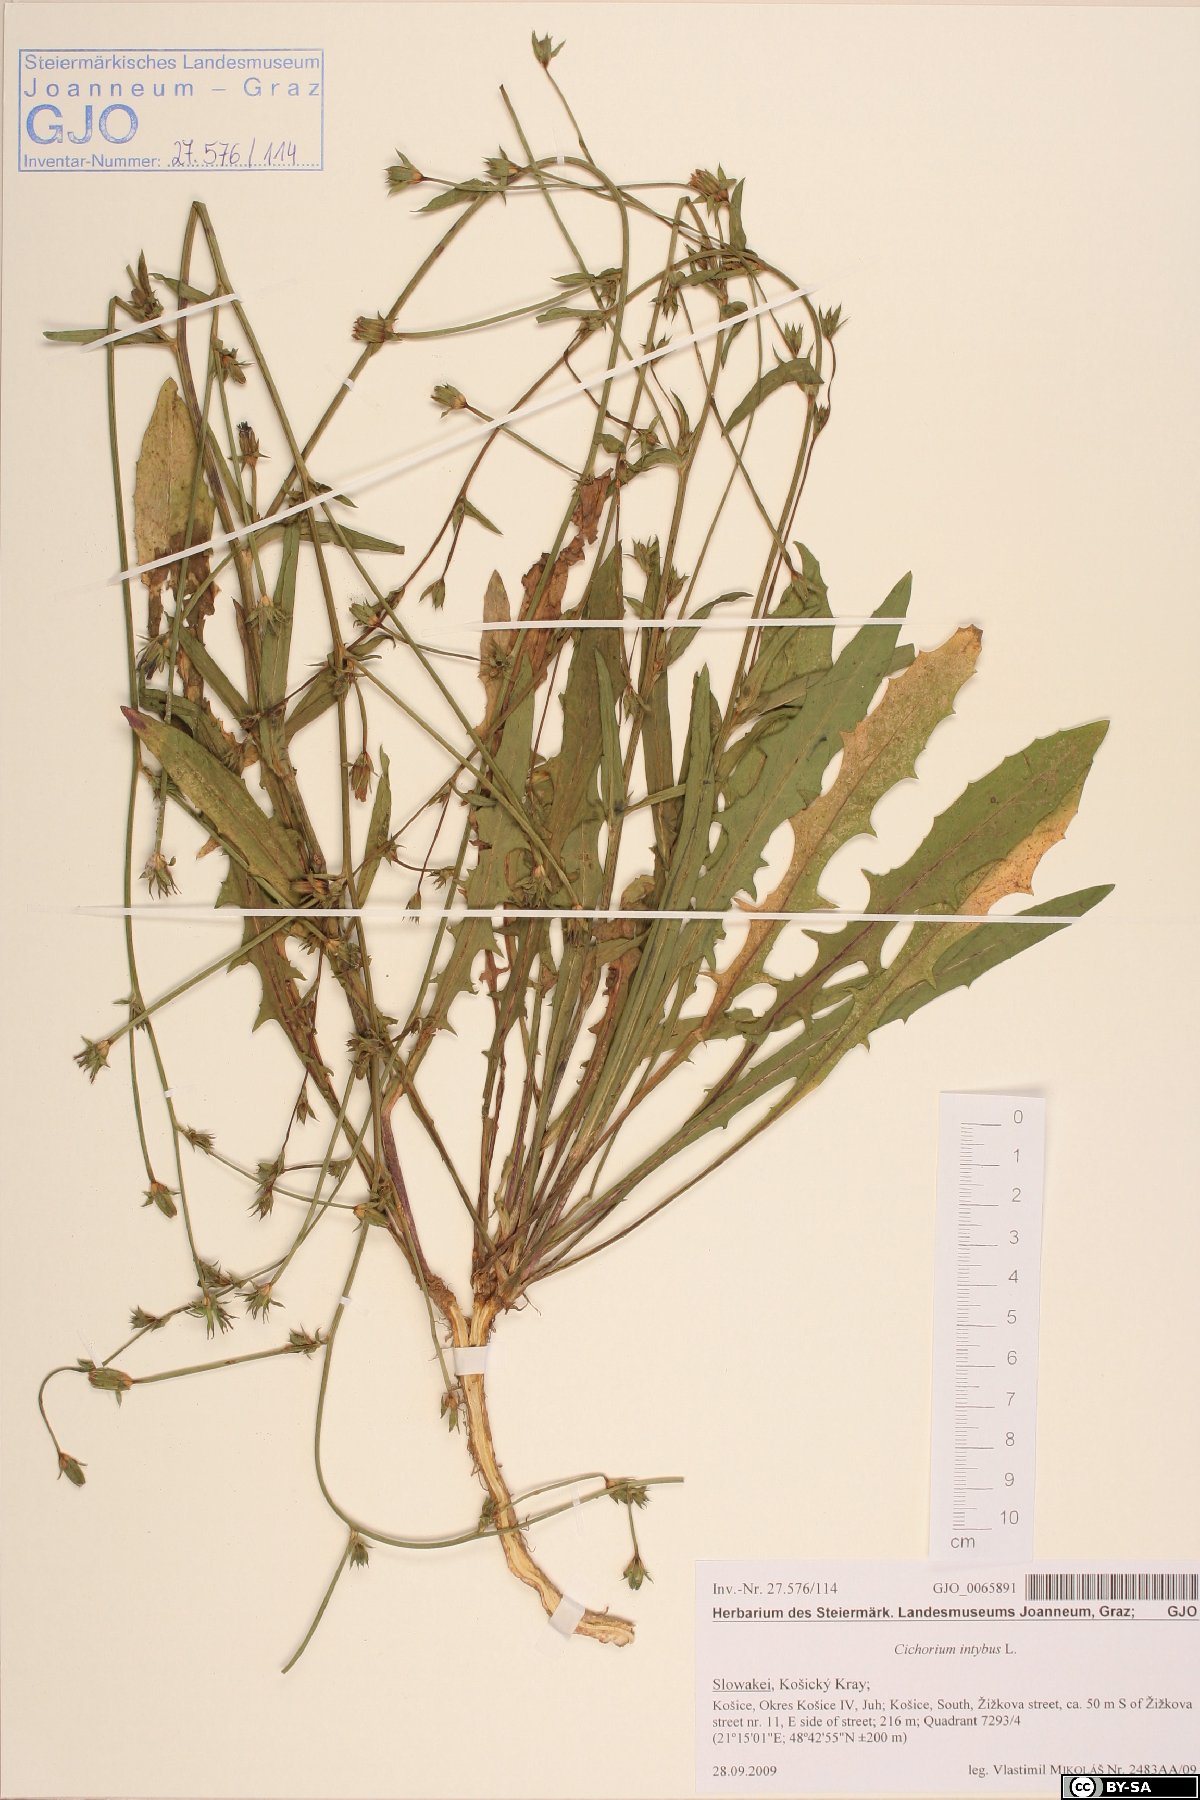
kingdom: Plantae
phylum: Tracheophyta
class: Magnoliopsida
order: Asterales
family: Asteraceae
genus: Cichorium
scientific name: Cichorium intybus
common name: Chicory
